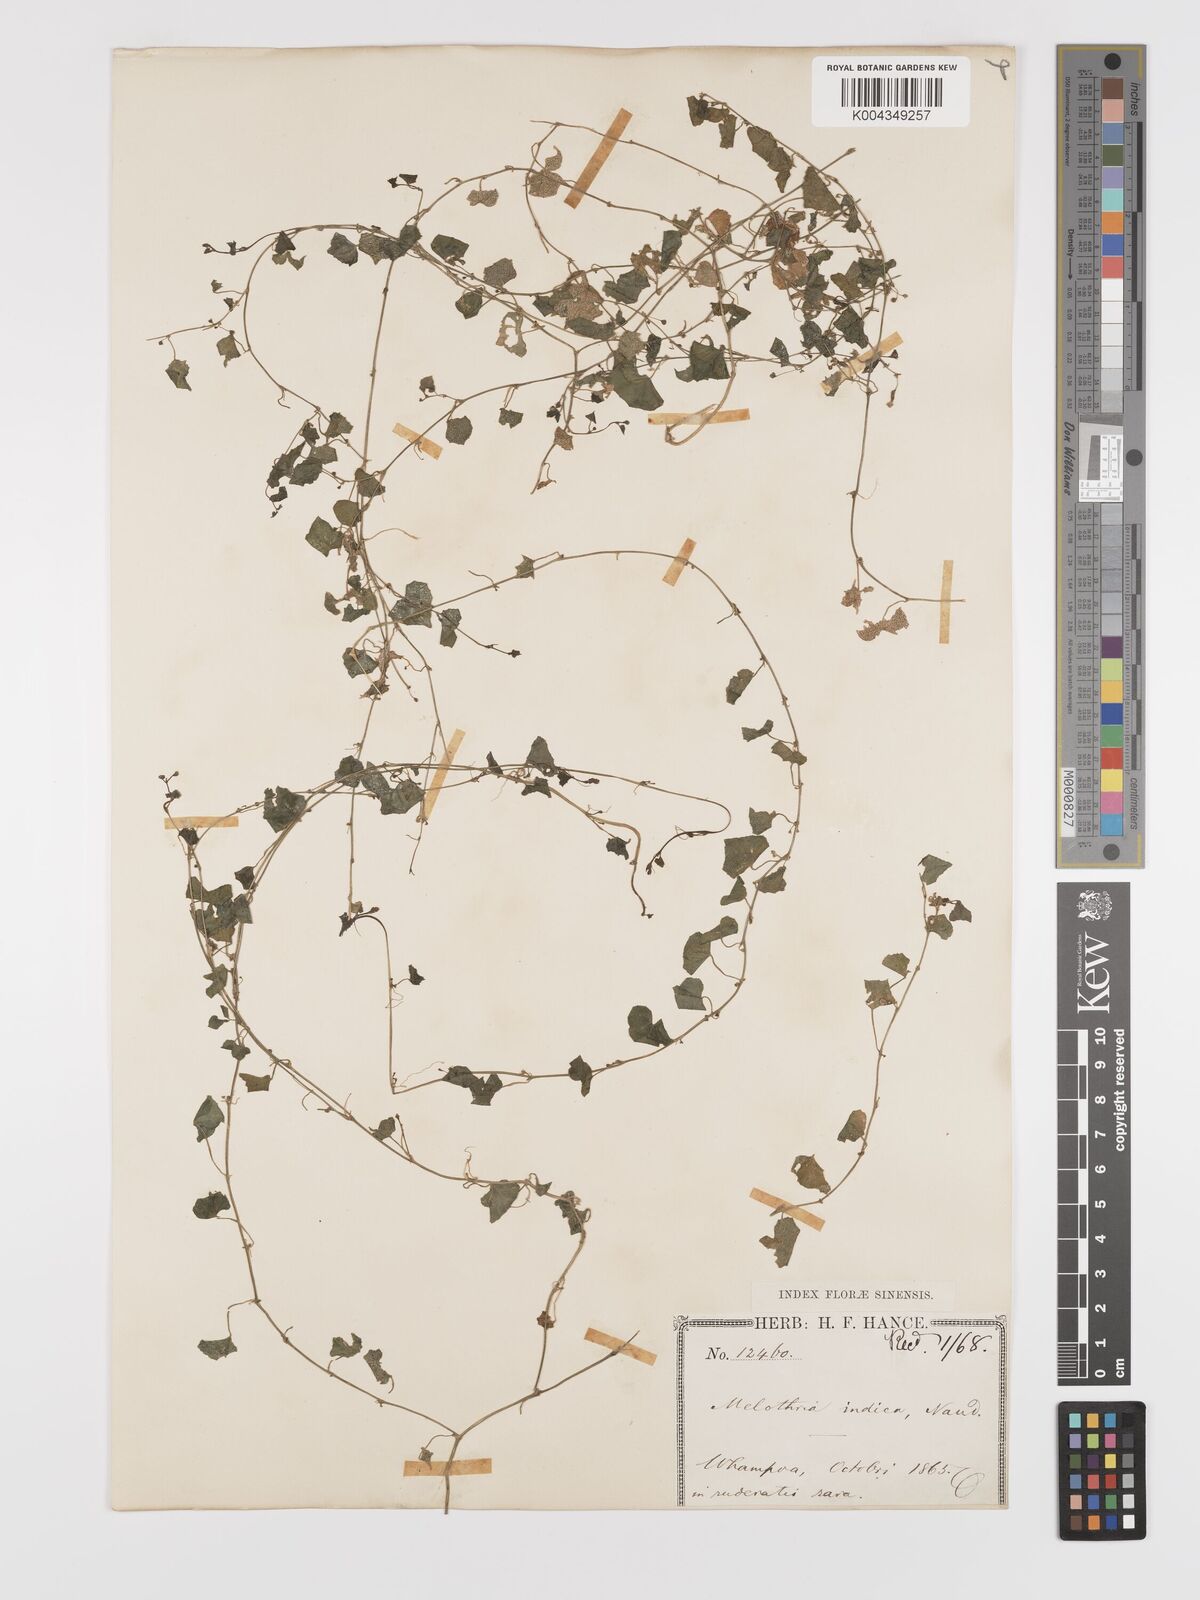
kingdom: Plantae
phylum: Tracheophyta
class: Magnoliopsida
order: Cucurbitales
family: Cucurbitaceae
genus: Zehneria
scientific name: Zehneria japonica
